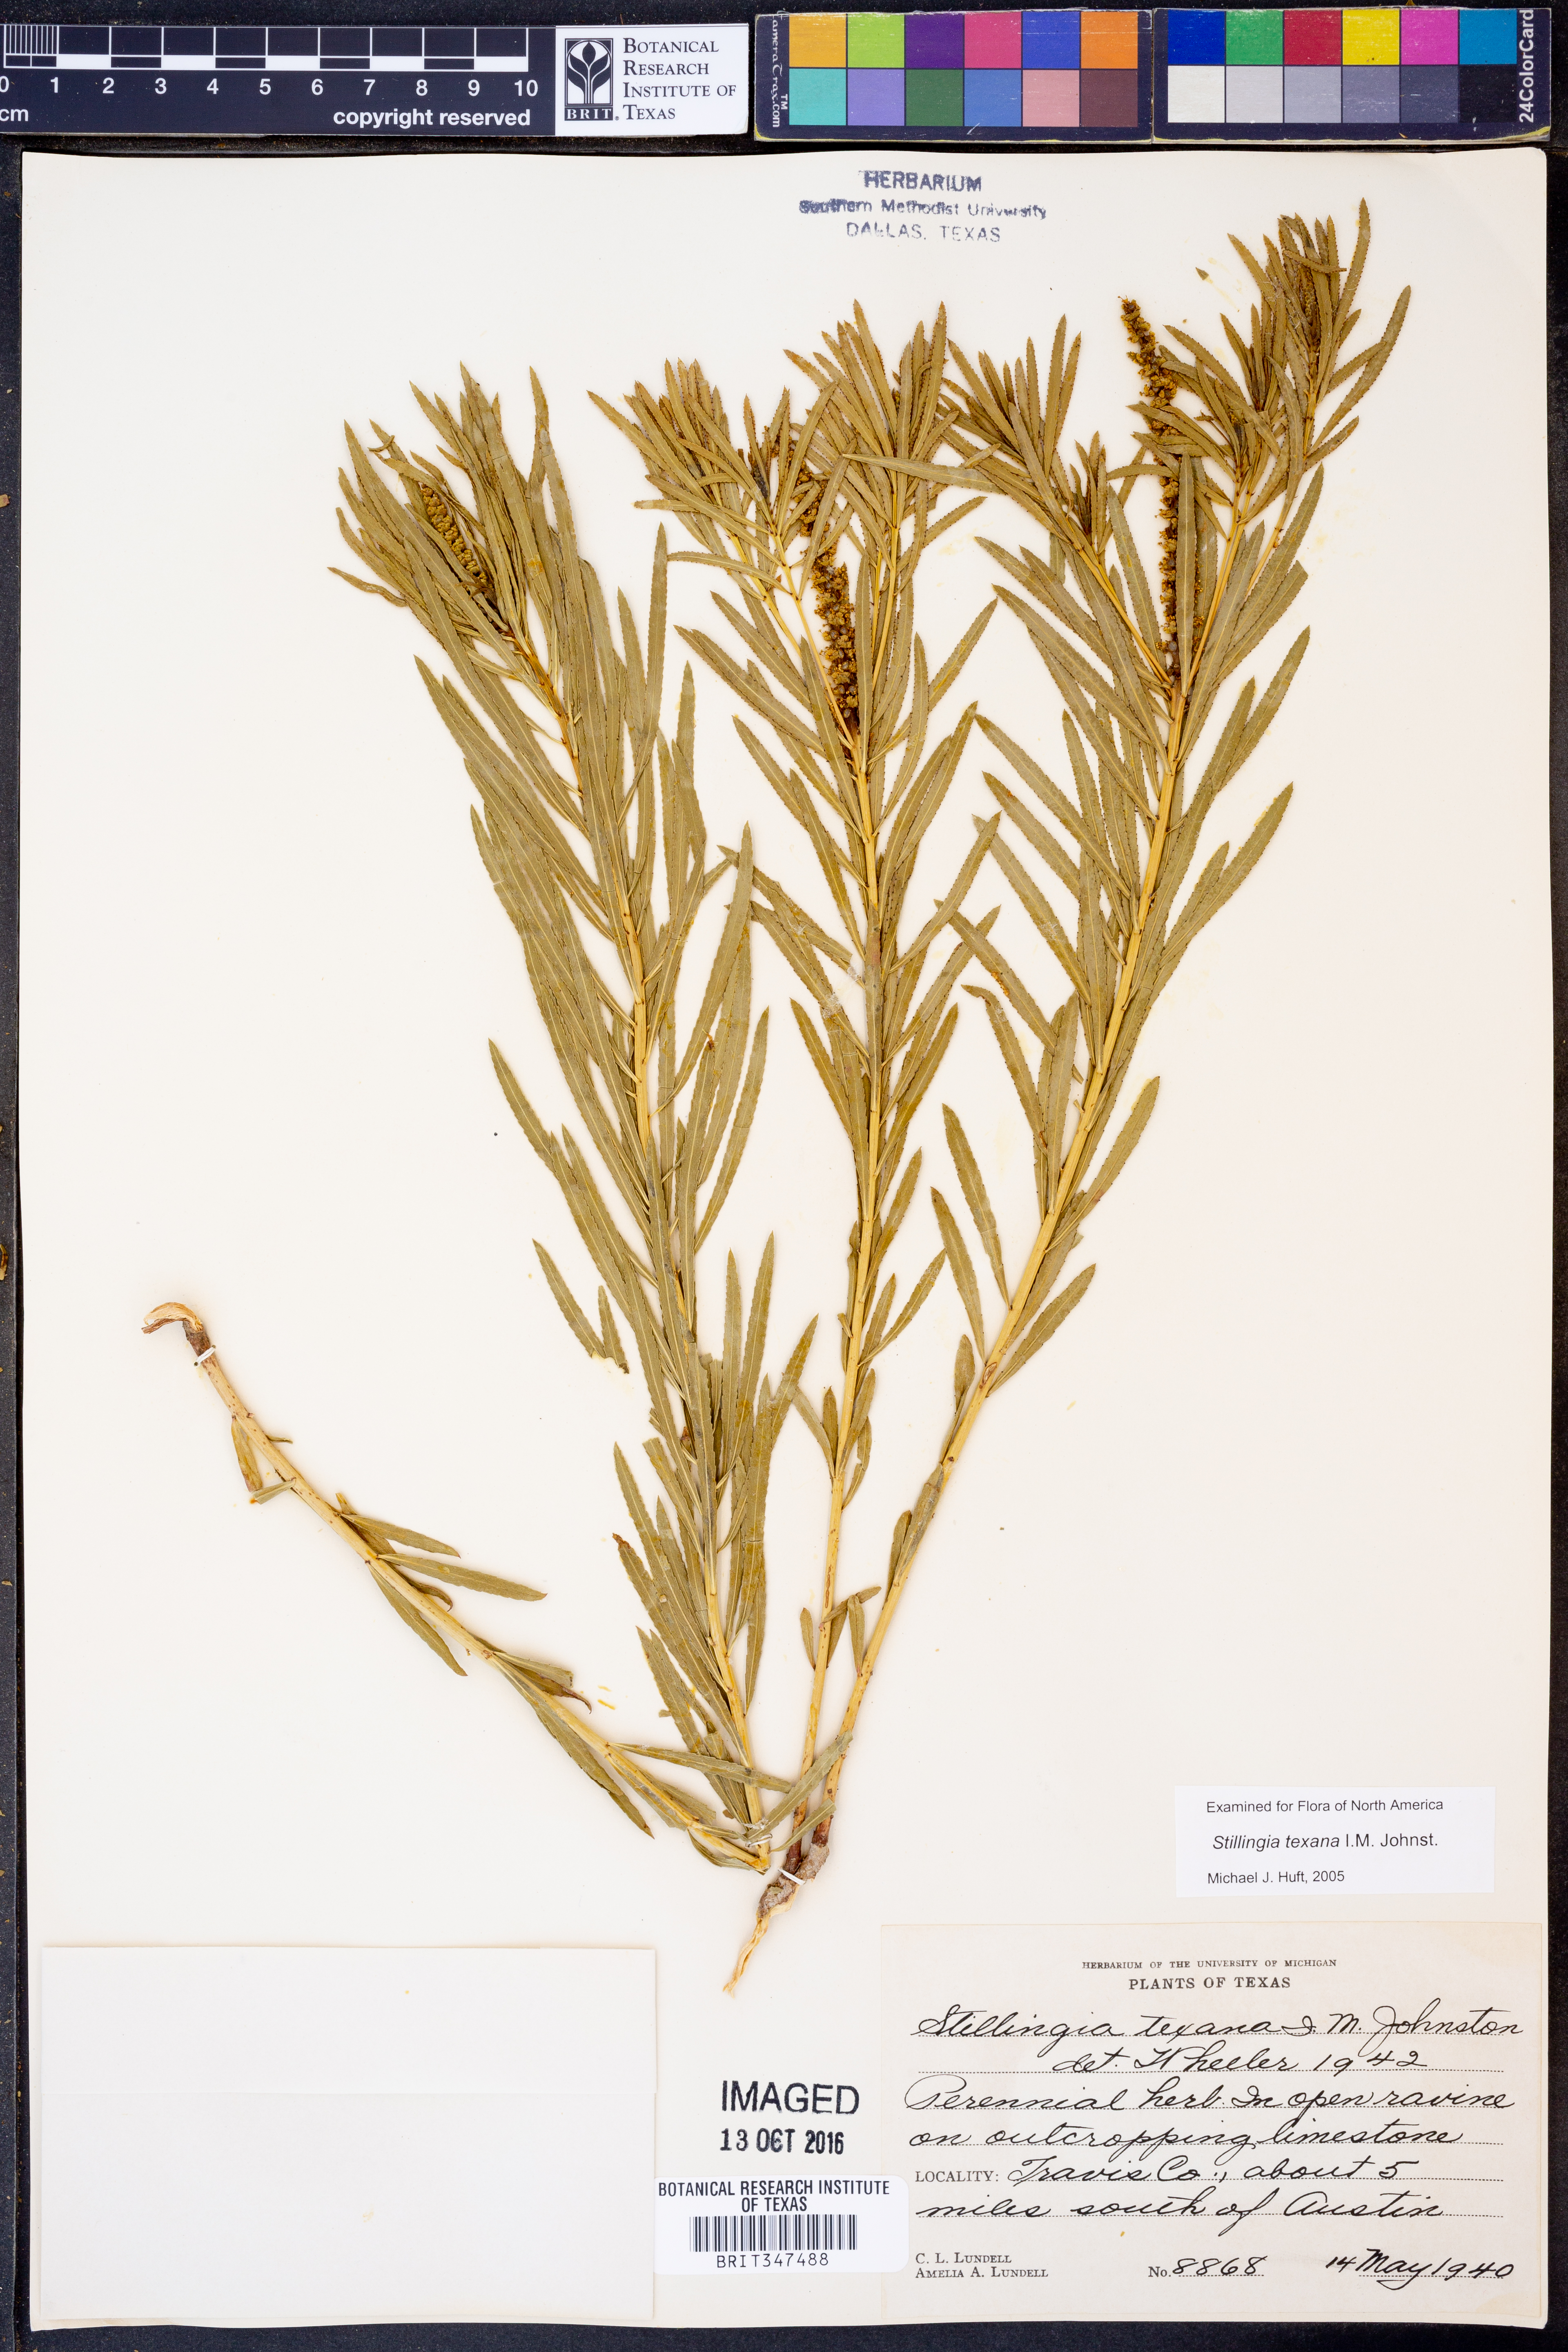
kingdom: Plantae
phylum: Tracheophyta
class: Magnoliopsida
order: Malpighiales
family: Euphorbiaceae
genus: Stillingia
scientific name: Stillingia texana
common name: Texas stillingia
